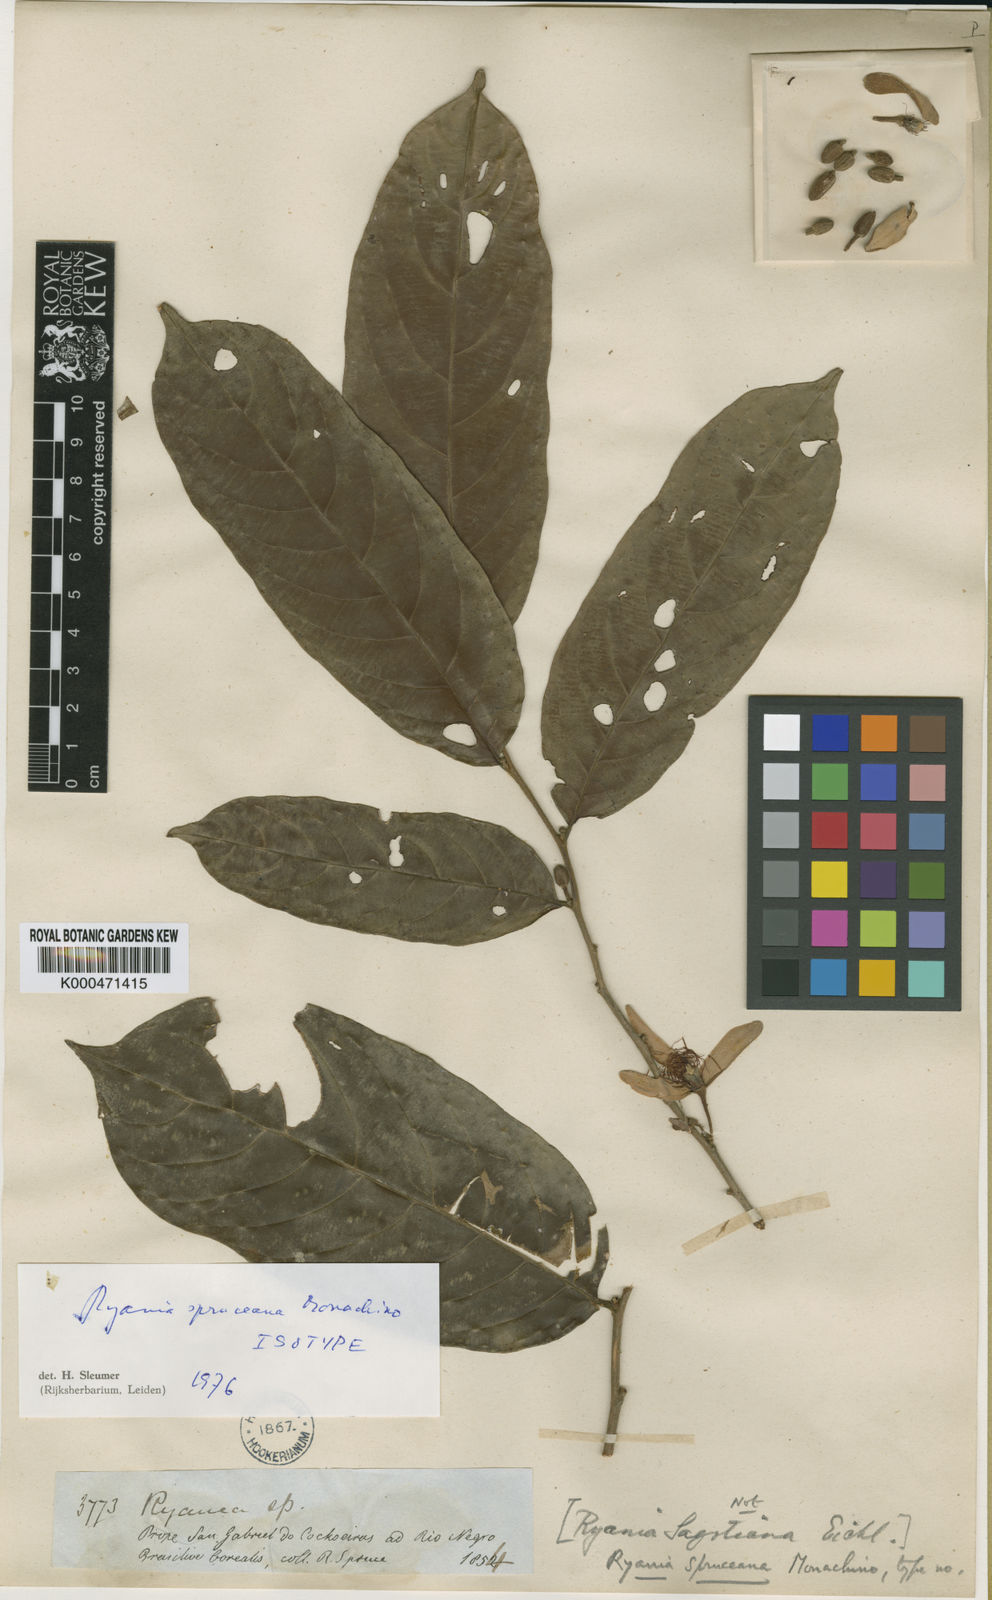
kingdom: Plantae
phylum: Tracheophyta
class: Magnoliopsida
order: Malpighiales
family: Salicaceae
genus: Ryania
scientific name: Ryania spruceana
